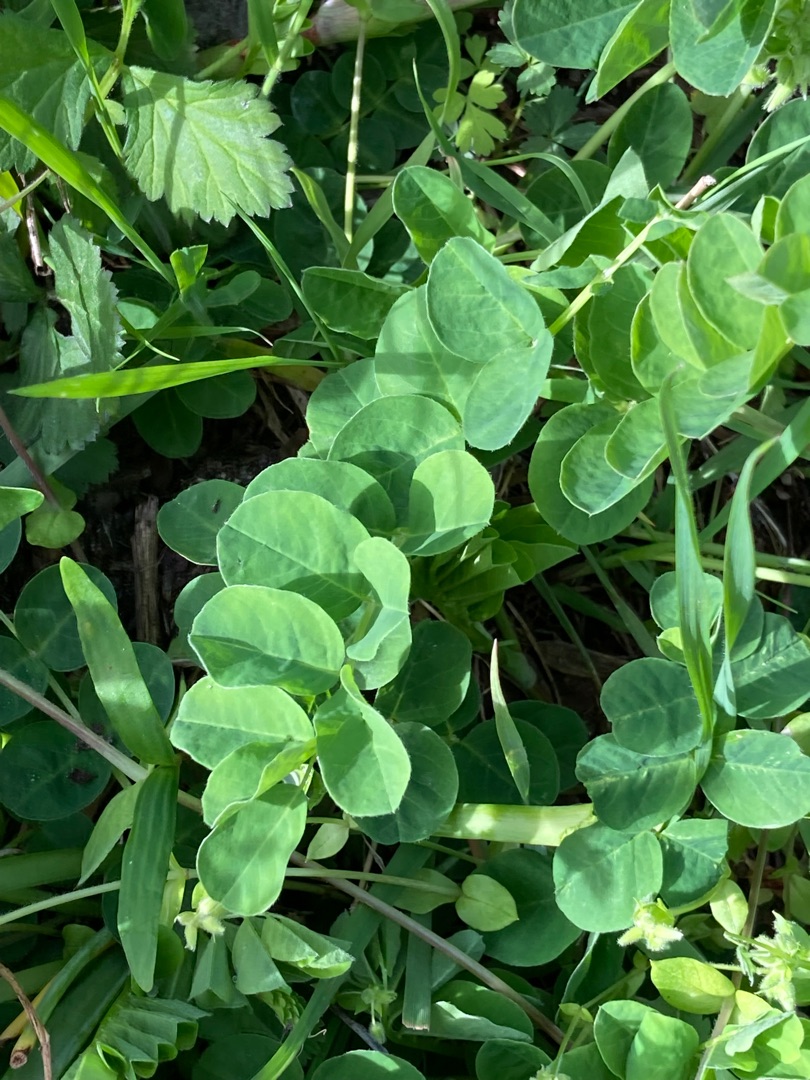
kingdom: Plantae
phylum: Tracheophyta
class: Magnoliopsida
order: Fabales
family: Fabaceae
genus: Astragalus
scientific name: Astragalus glycyphyllos
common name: Sød astragel
